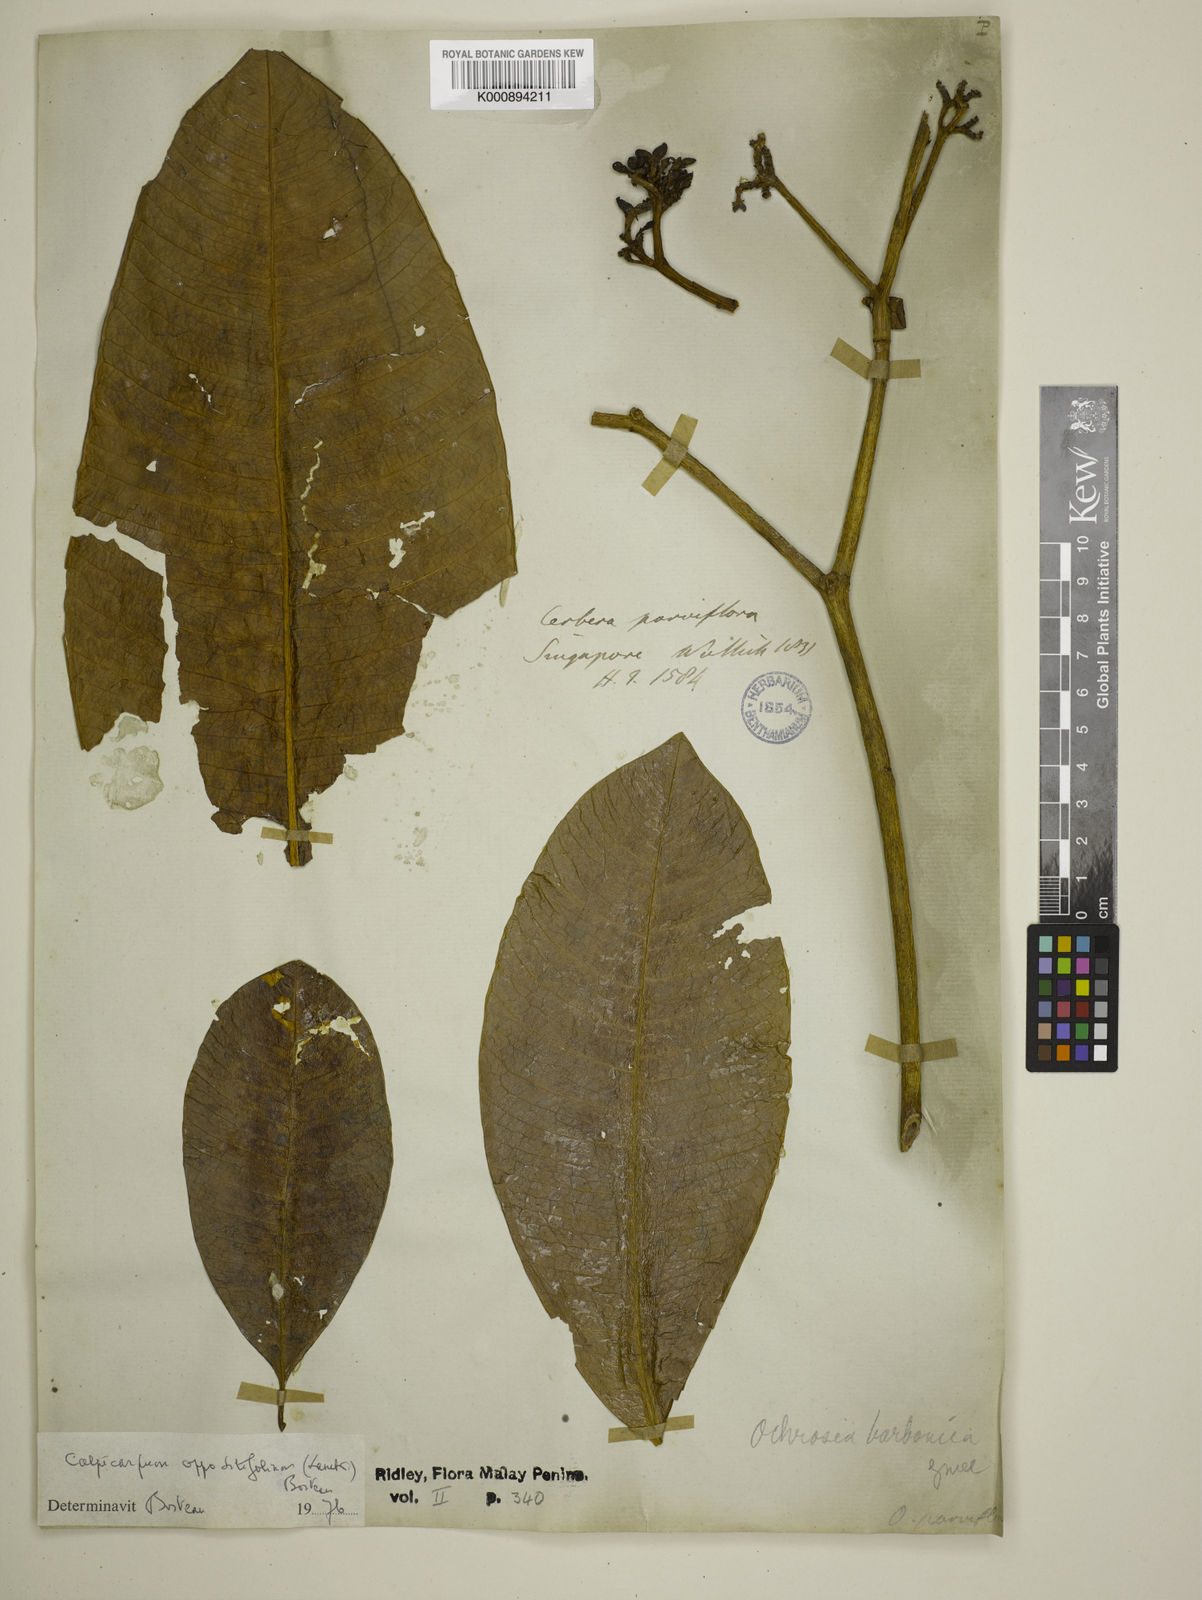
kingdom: Plantae
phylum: Tracheophyta
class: Magnoliopsida
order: Gentianales
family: Apocynaceae
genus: Ochrosia
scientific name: Ochrosia borbonica
